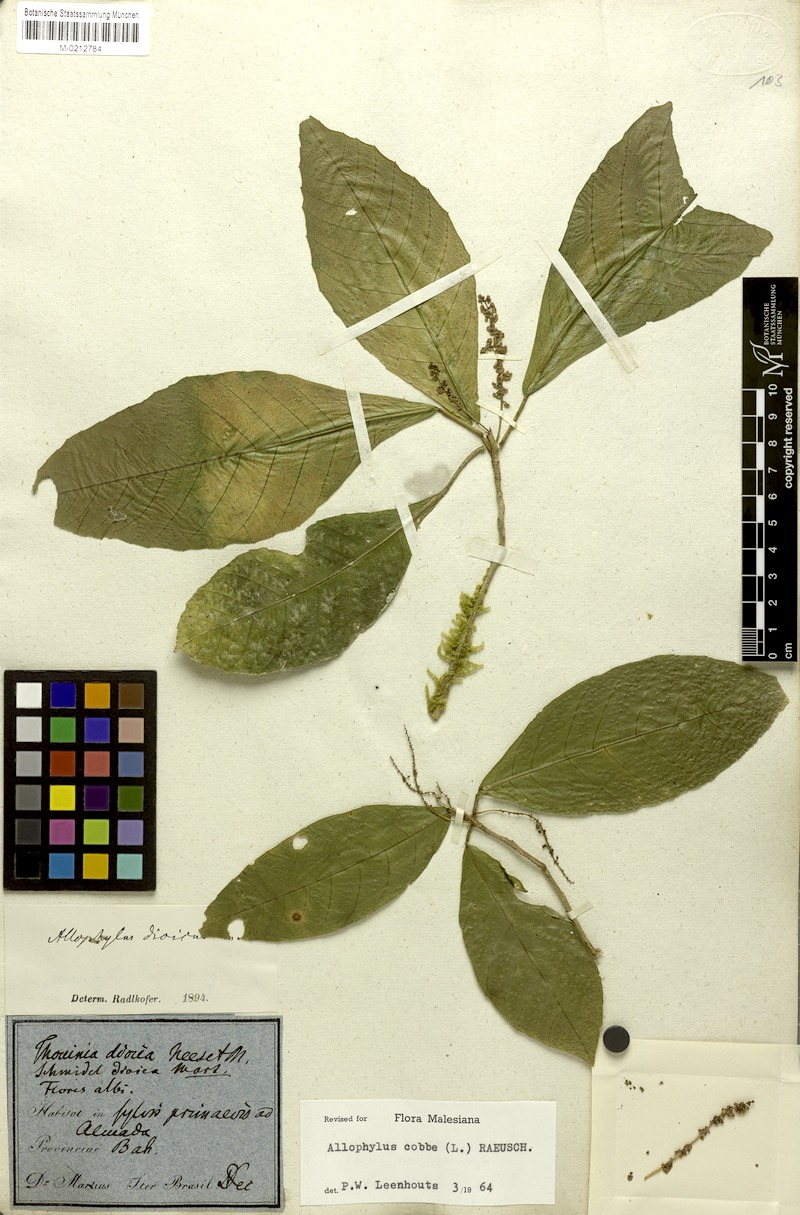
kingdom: Plantae
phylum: Tracheophyta
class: Magnoliopsida
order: Sapindales
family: Sapindaceae
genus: Allophylus
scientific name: Allophylus dioicus
